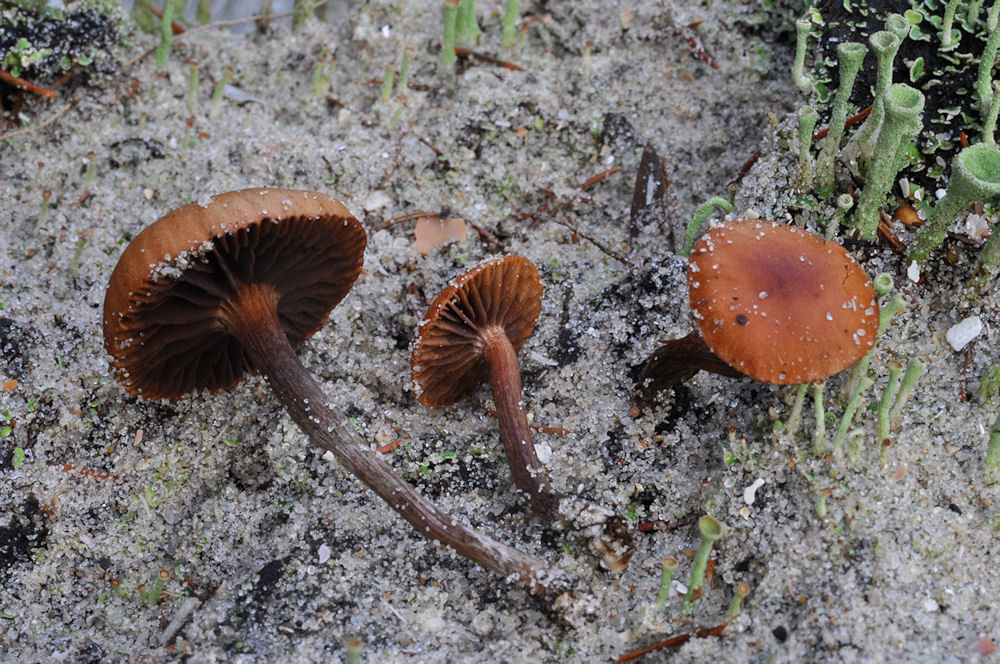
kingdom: Fungi
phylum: Basidiomycota
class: Agaricomycetes
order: Agaricales
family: Strophariaceae
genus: Deconica
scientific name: Deconica montana
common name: rødbrun stråhat
